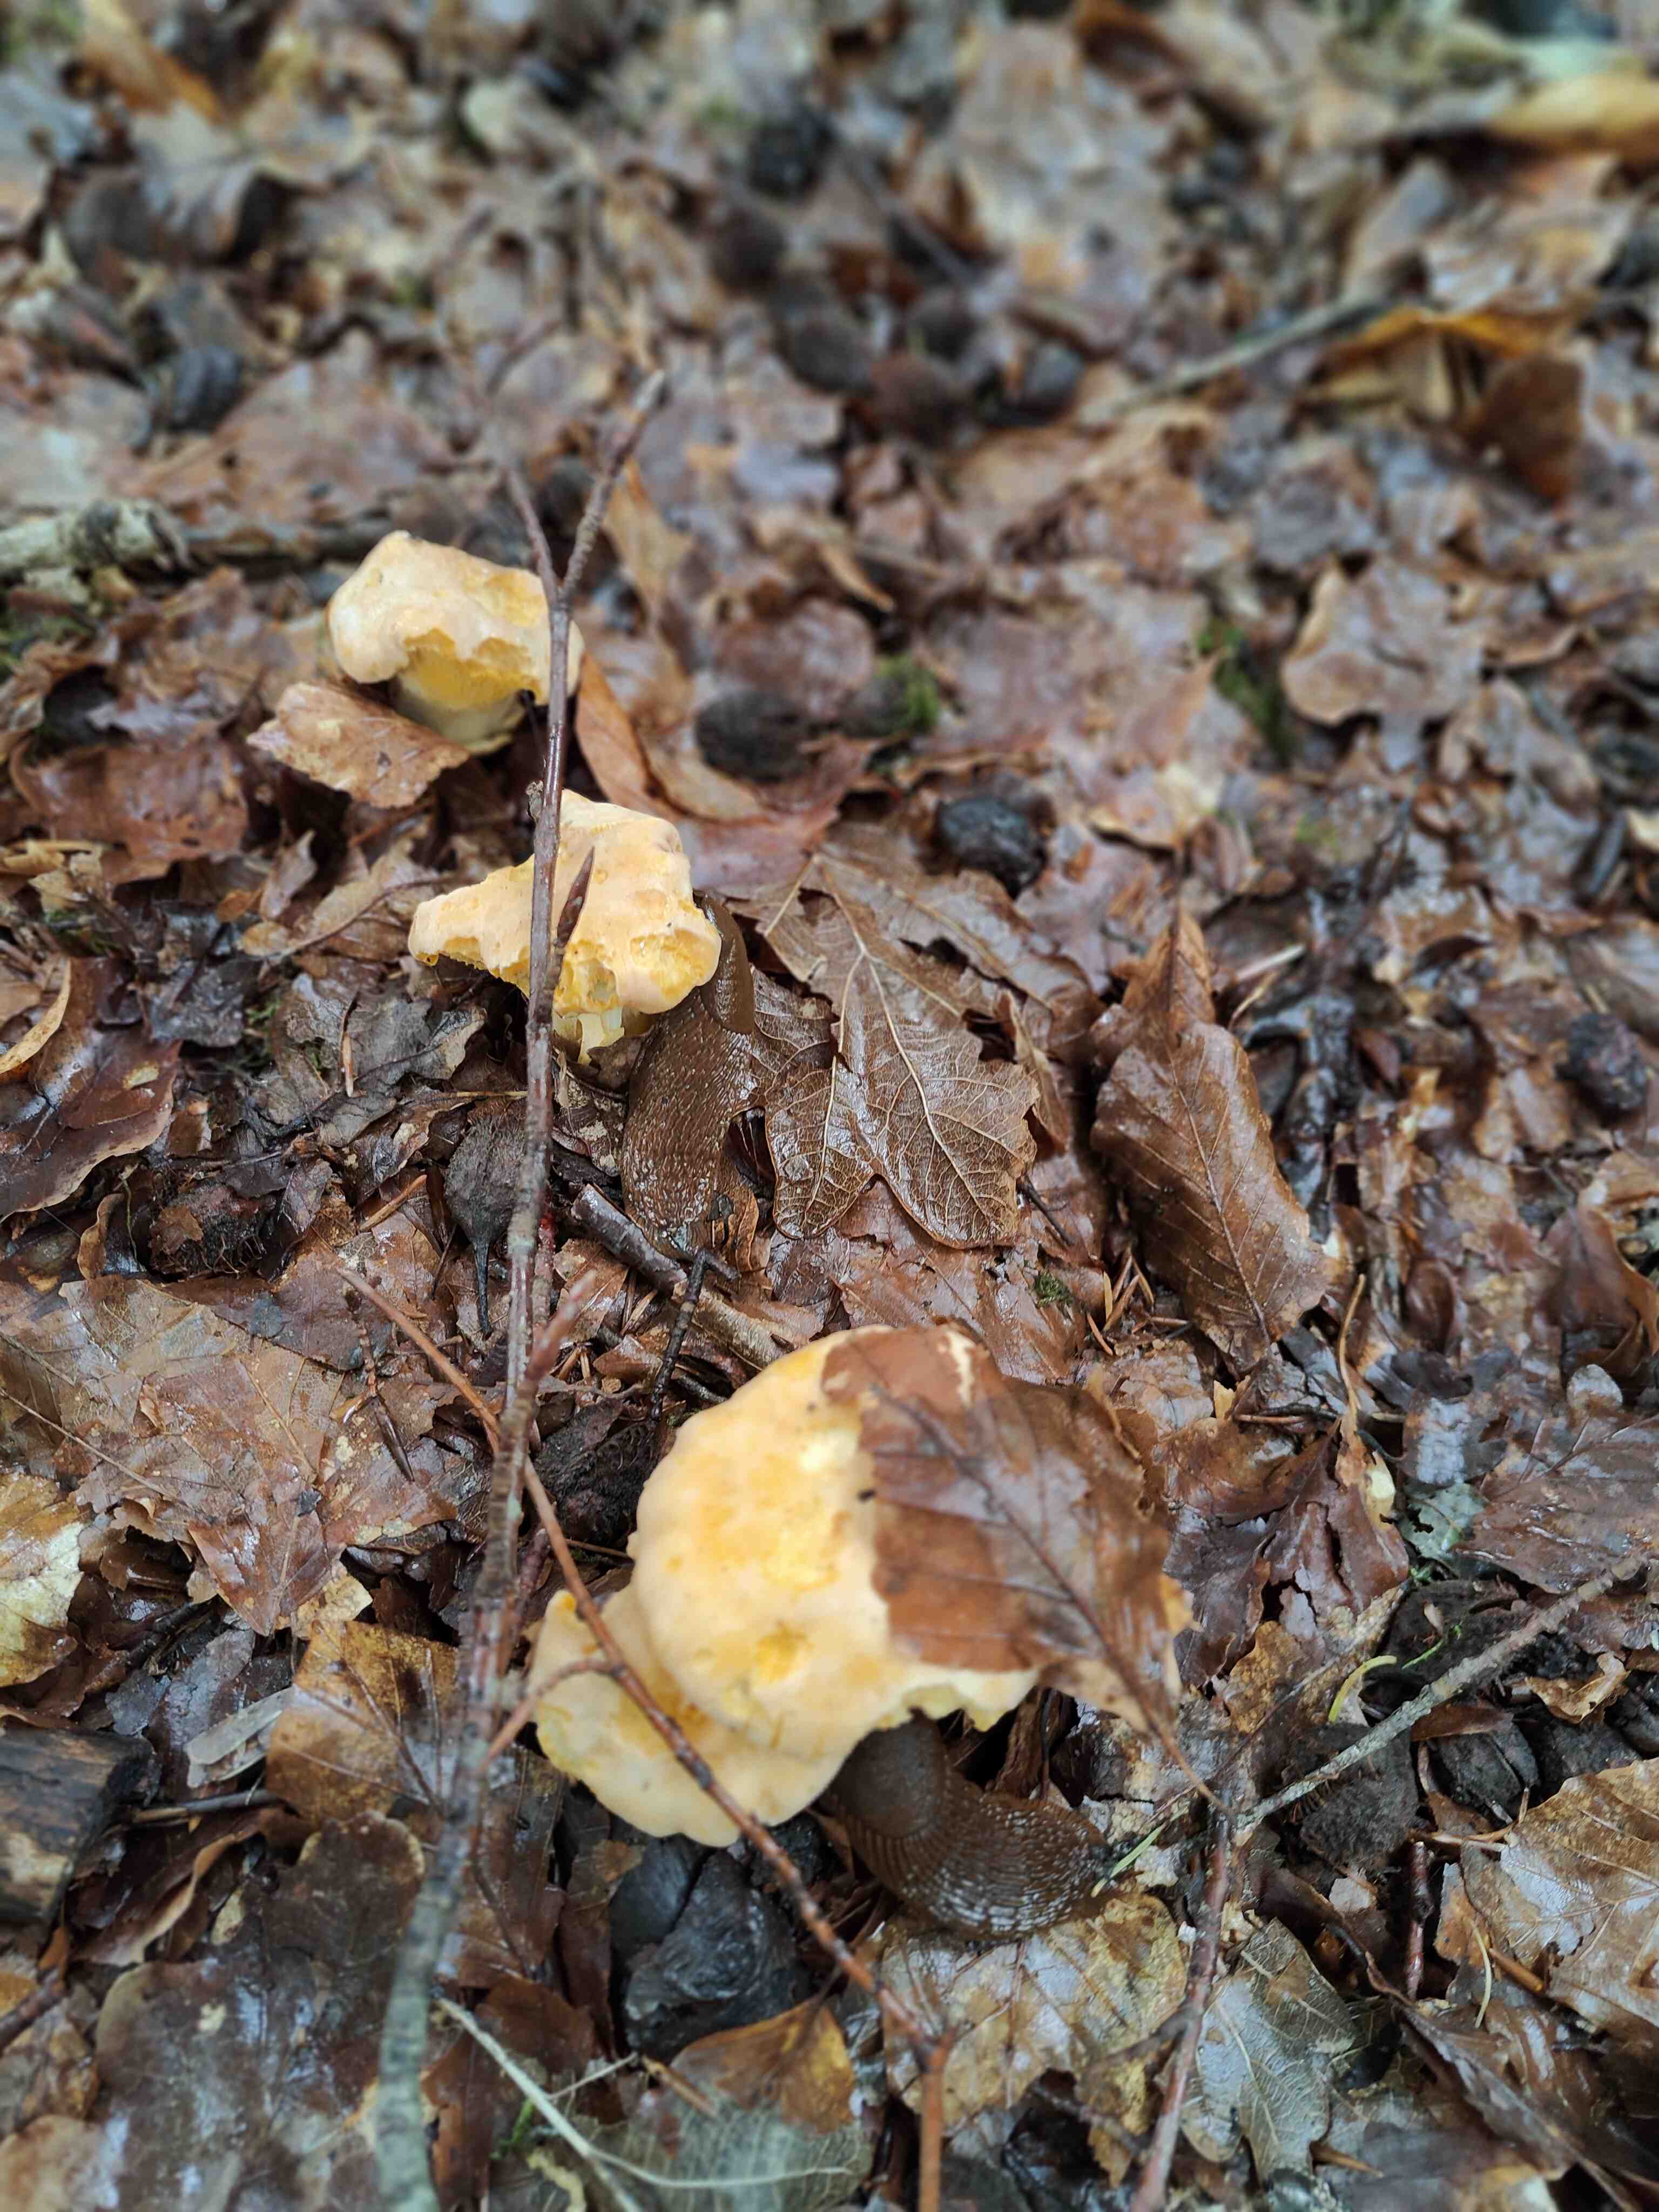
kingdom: Fungi
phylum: Basidiomycota
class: Agaricomycetes
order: Cantharellales
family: Hydnaceae
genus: Cantharellus
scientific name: Cantharellus pallens
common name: bleg kantarel
